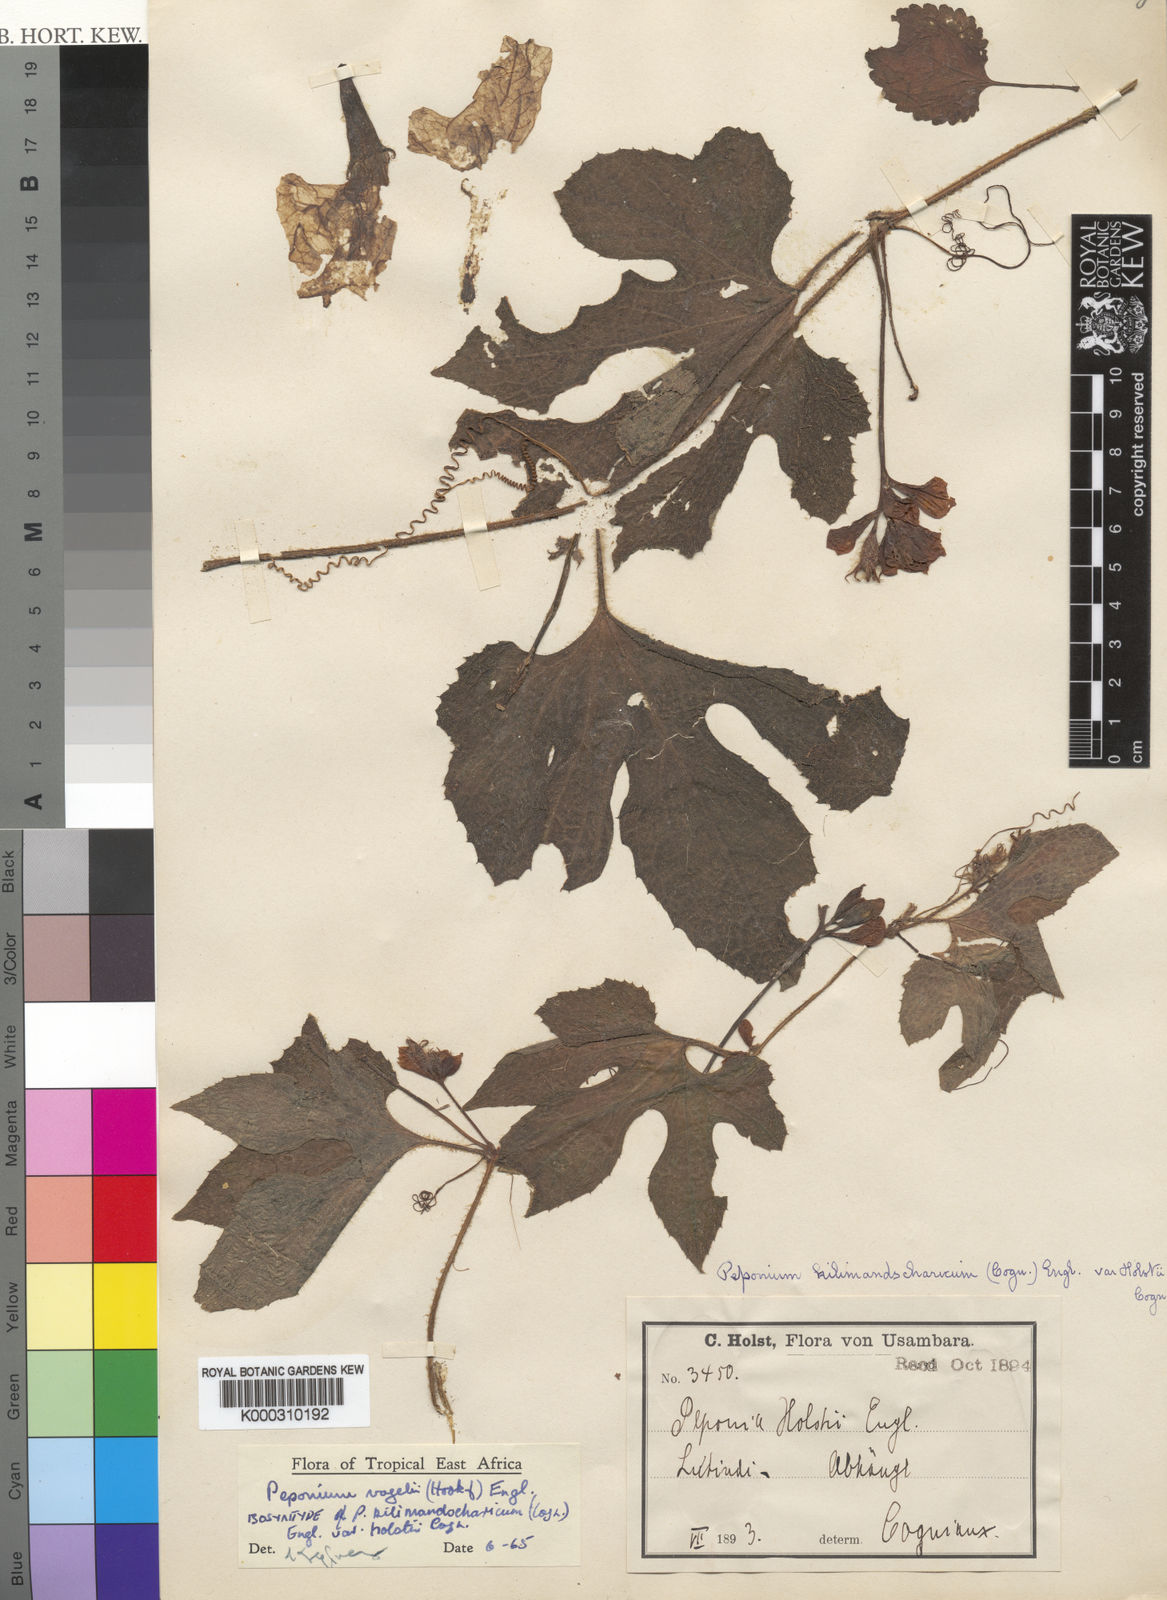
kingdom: Plantae
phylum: Tracheophyta
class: Magnoliopsida
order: Cucurbitales
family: Cucurbitaceae
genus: Peponium
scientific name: Peponium vogelii
